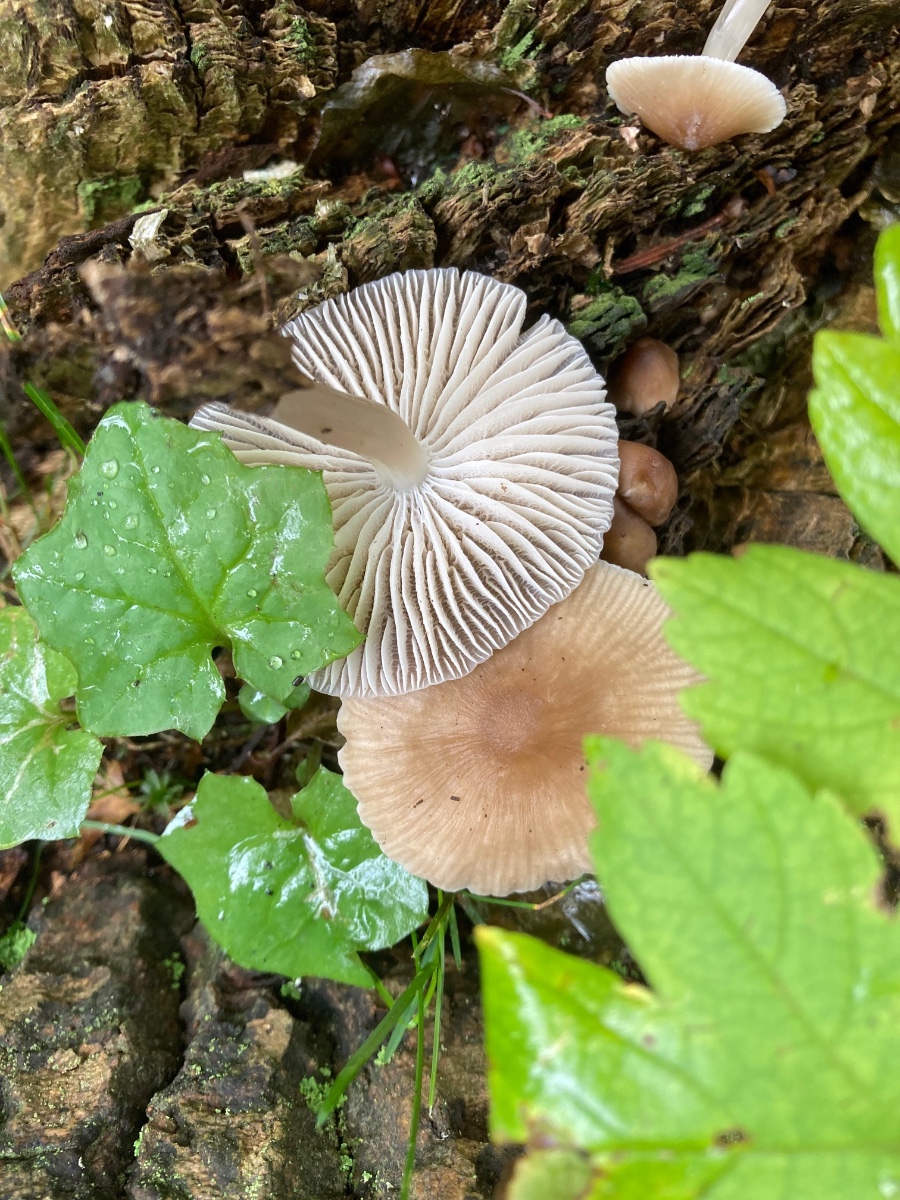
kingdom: Fungi
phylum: Basidiomycota
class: Agaricomycetes
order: Agaricales
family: Mycenaceae
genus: Mycena
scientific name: Mycena galericulata
